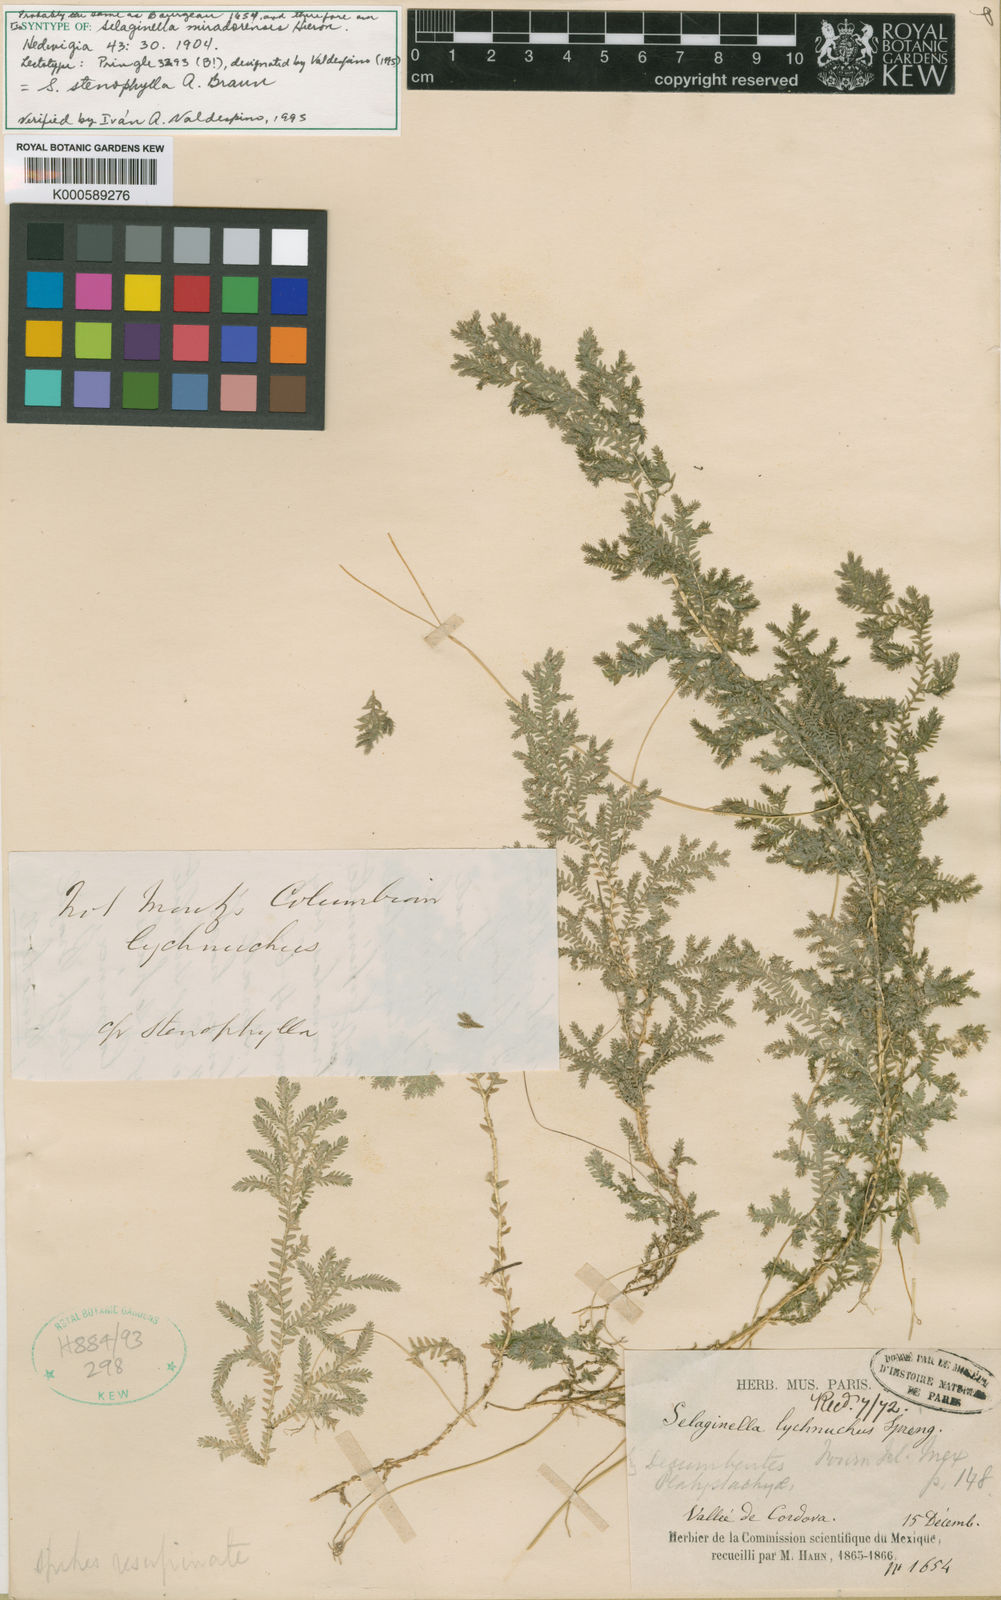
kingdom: Plantae
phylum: Tracheophyta
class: Lycopodiopsida
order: Selaginellales
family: Selaginellaceae
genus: Selaginella
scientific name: Selaginella stenophylla
